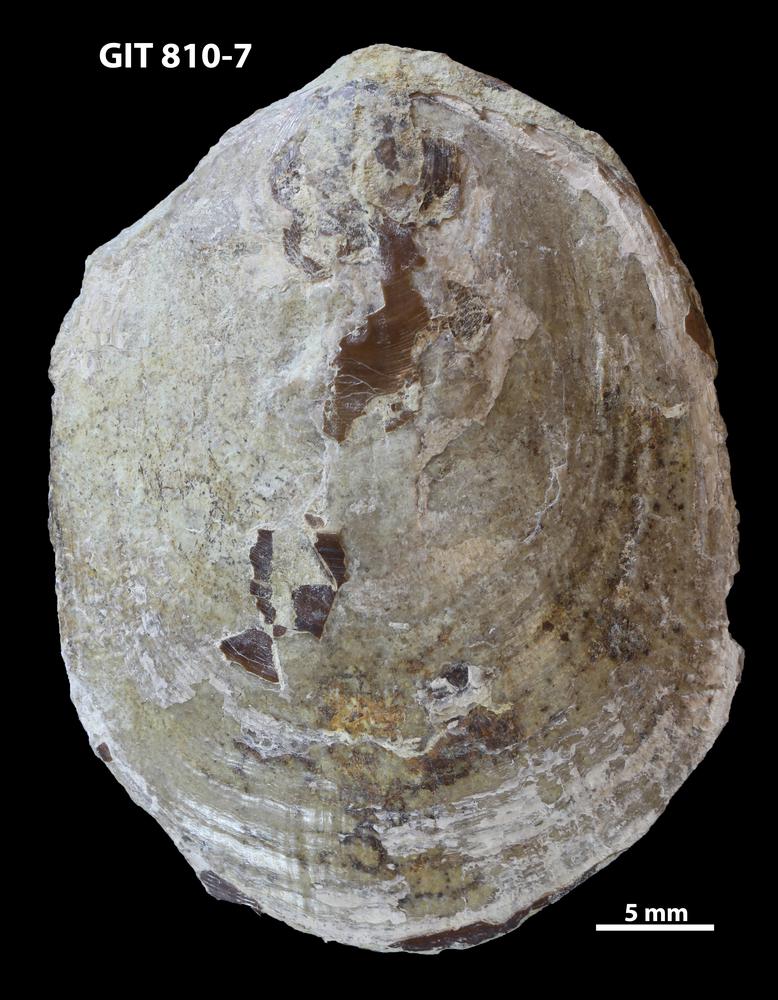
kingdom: Animalia
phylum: Brachiopoda
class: Lingulata
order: Lingulida
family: Pseudolingulidae
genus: Pseudolingula
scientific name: Pseudolingula Crania quadrata
